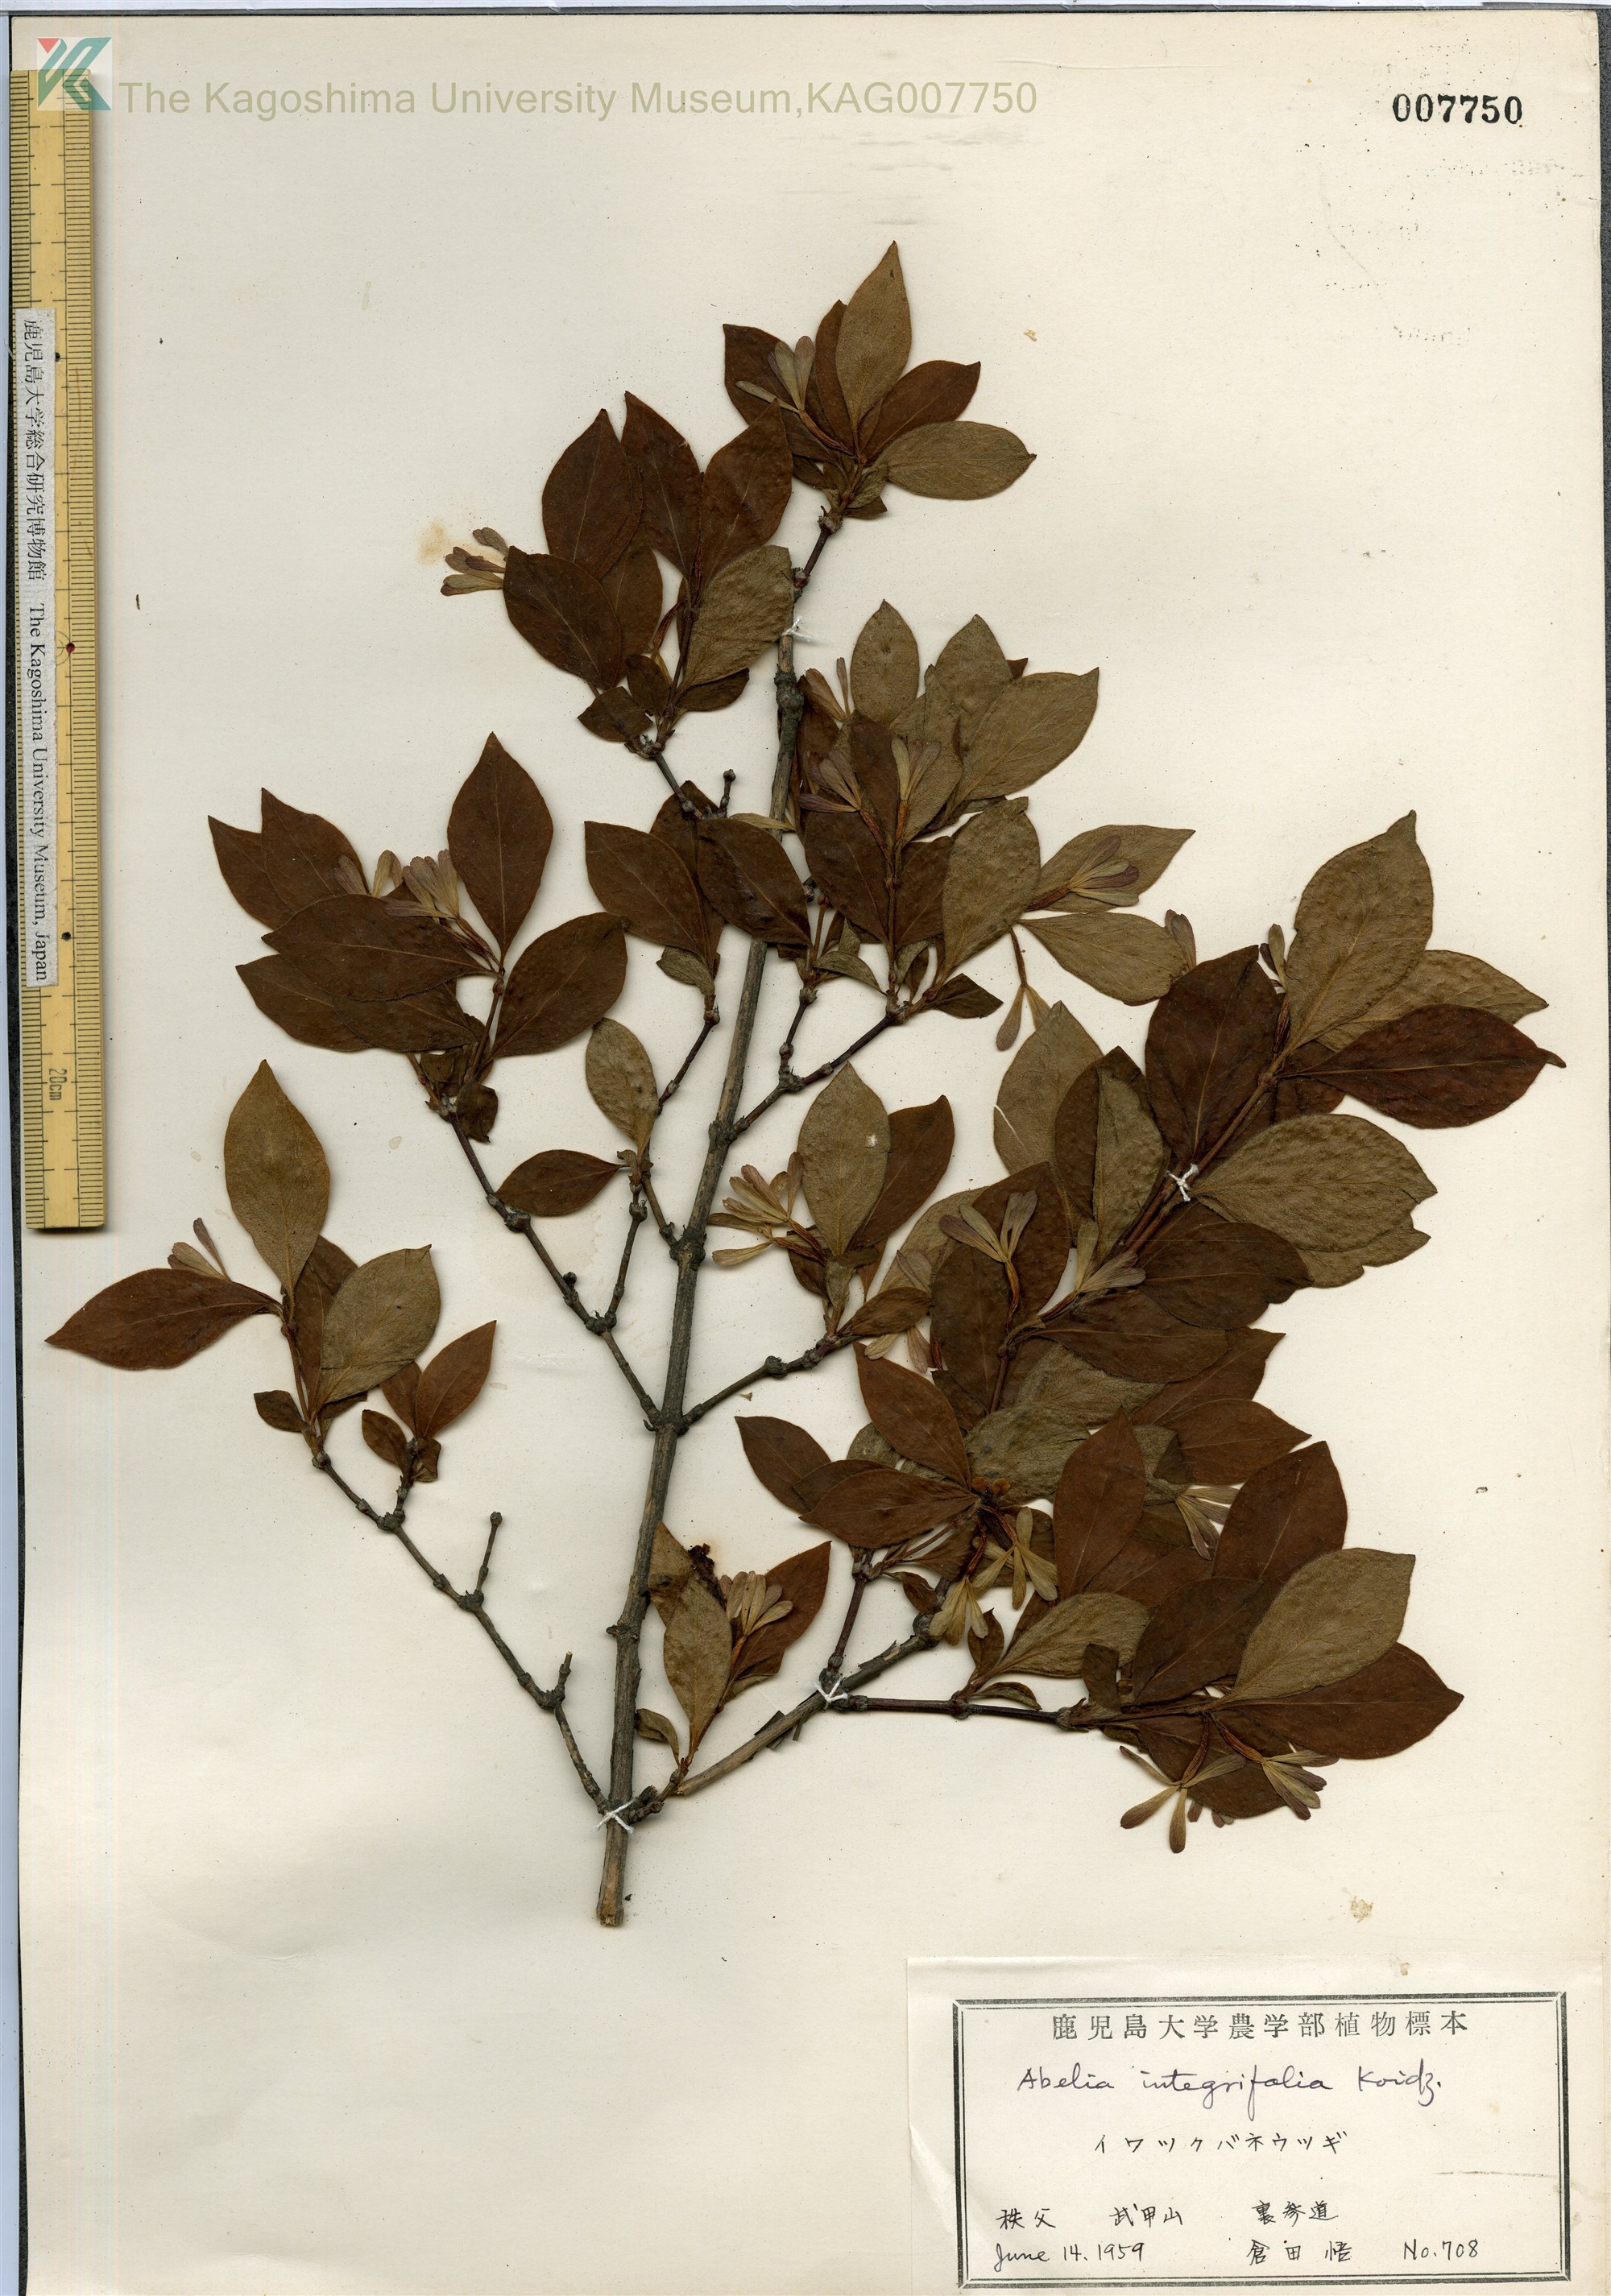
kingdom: Plantae
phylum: Tracheophyta
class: Magnoliopsida
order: Dipsacales
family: Caprifoliaceae
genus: Zabelia
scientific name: Zabelia integrifolia
